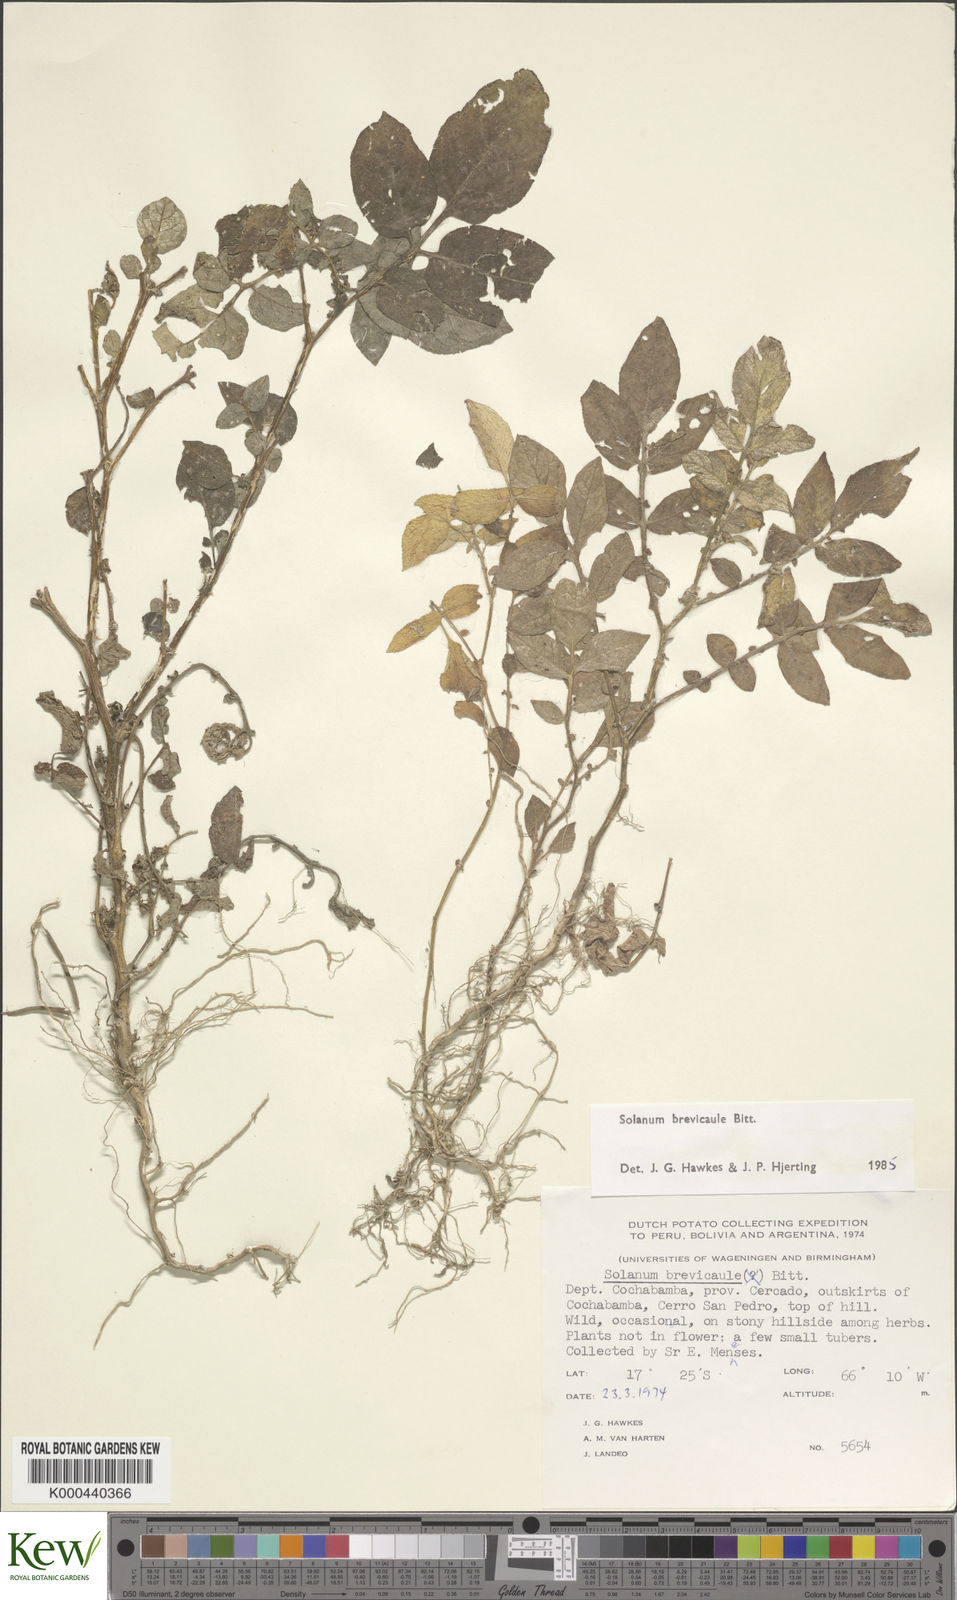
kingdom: Plantae
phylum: Tracheophyta
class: Magnoliopsida
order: Solanales
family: Solanaceae
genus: Solanum
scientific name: Solanum brevicaule
